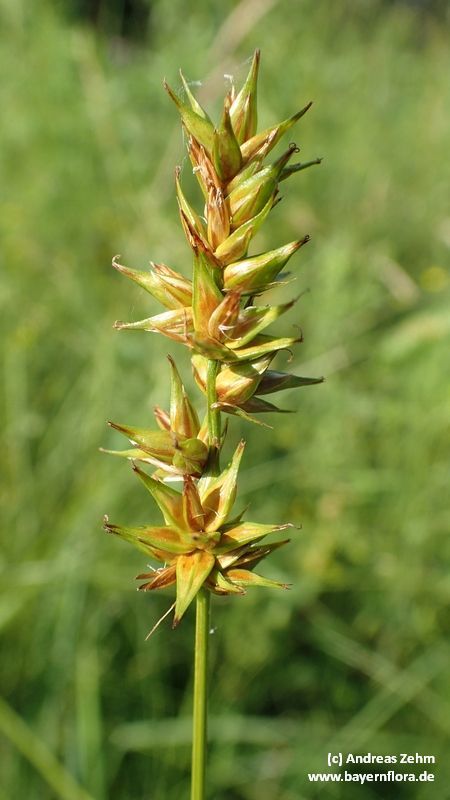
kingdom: Plantae
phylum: Tracheophyta
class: Liliopsida
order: Poales
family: Cyperaceae
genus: Carex
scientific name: Carex
